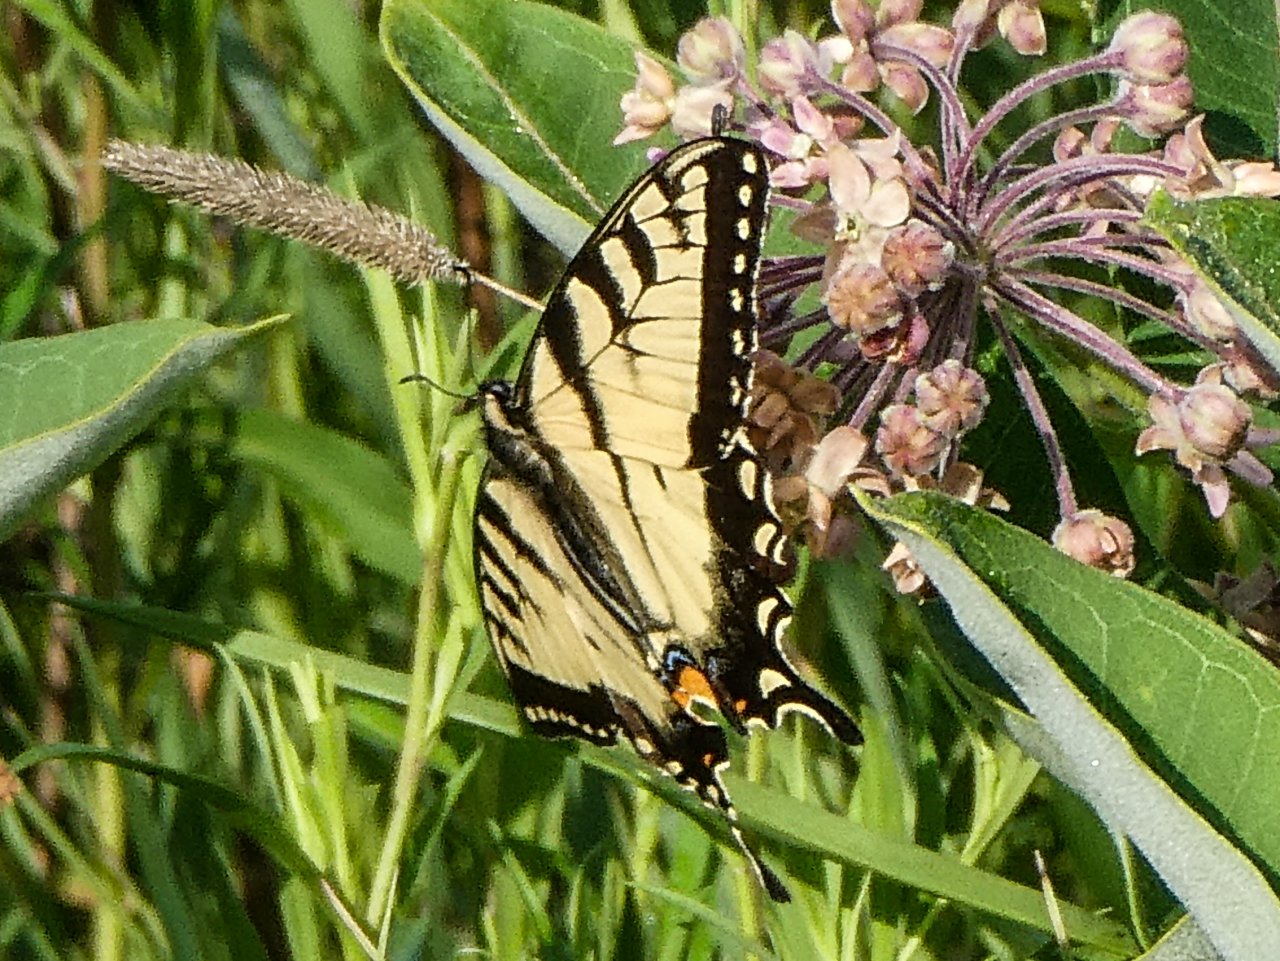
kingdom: Animalia
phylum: Arthropoda
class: Insecta
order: Lepidoptera
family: Papilionidae
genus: Pterourus
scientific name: Pterourus canadensis
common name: Canadian Tiger Swallowtail
